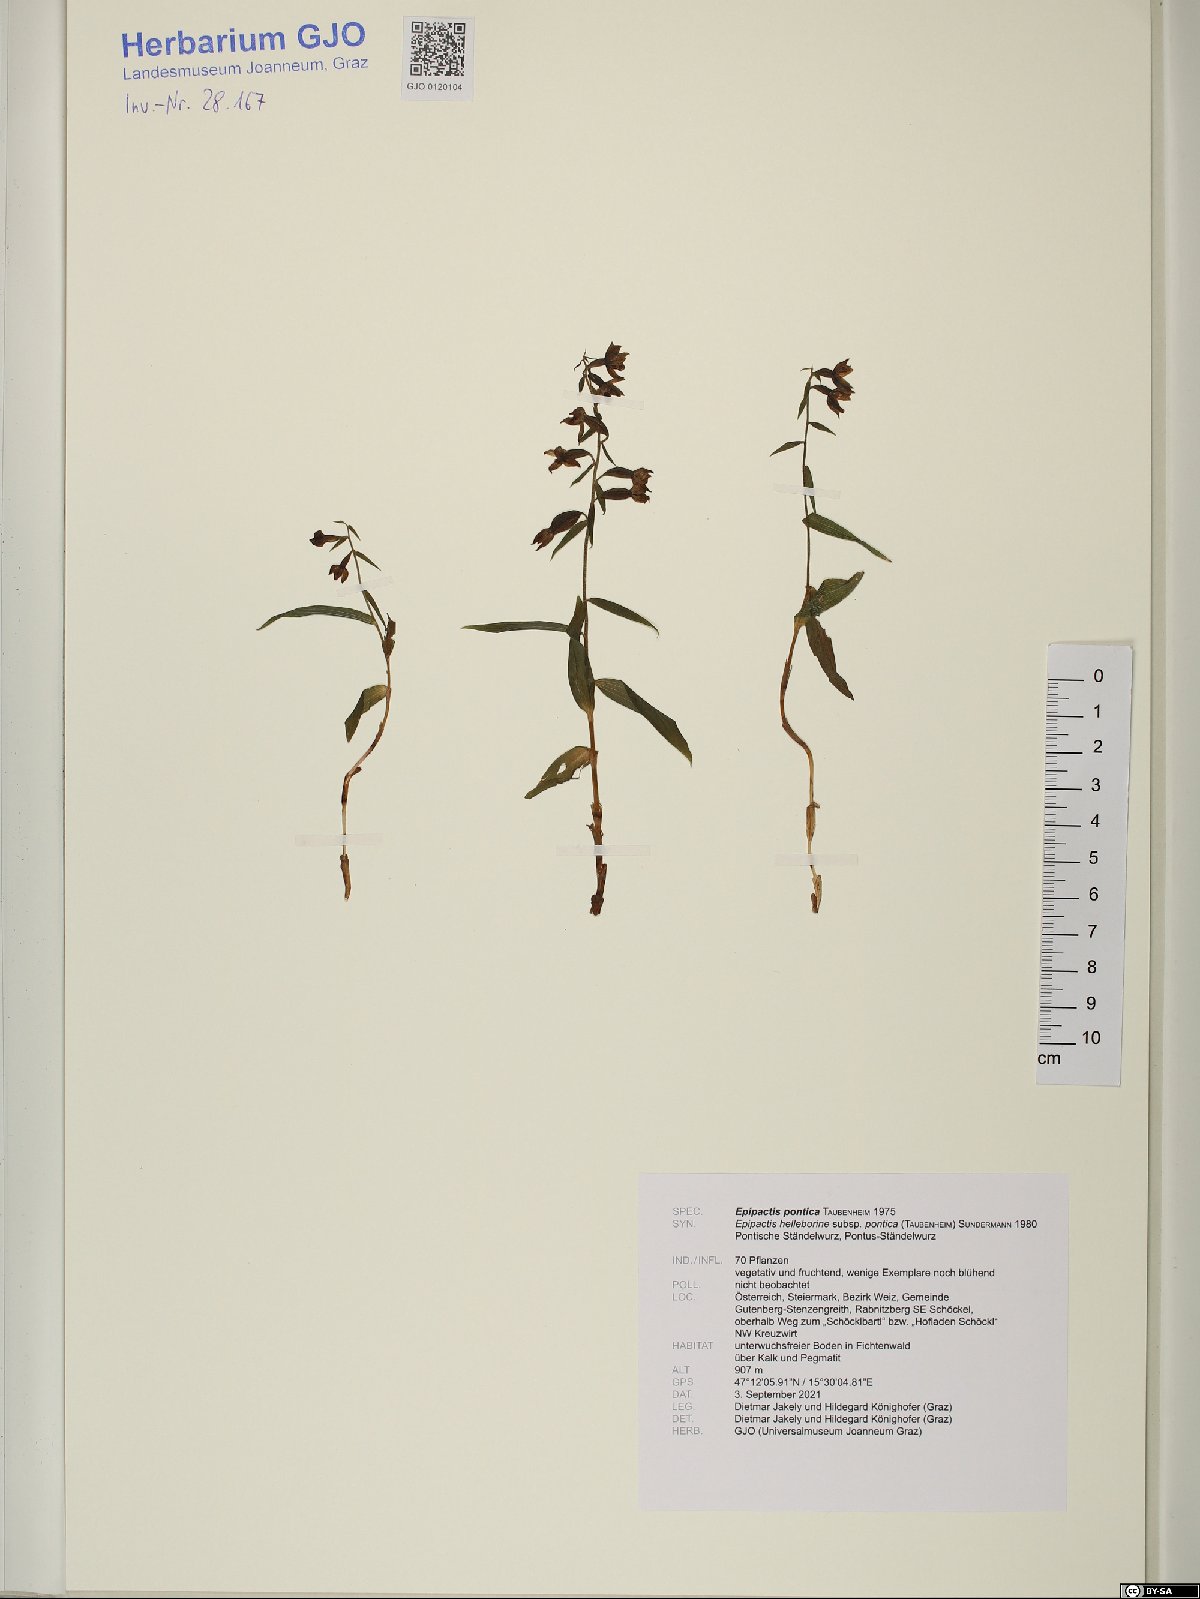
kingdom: Plantae
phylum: Tracheophyta
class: Liliopsida
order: Asparagales
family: Orchidaceae
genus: Epipactis
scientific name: Epipactis pontica
